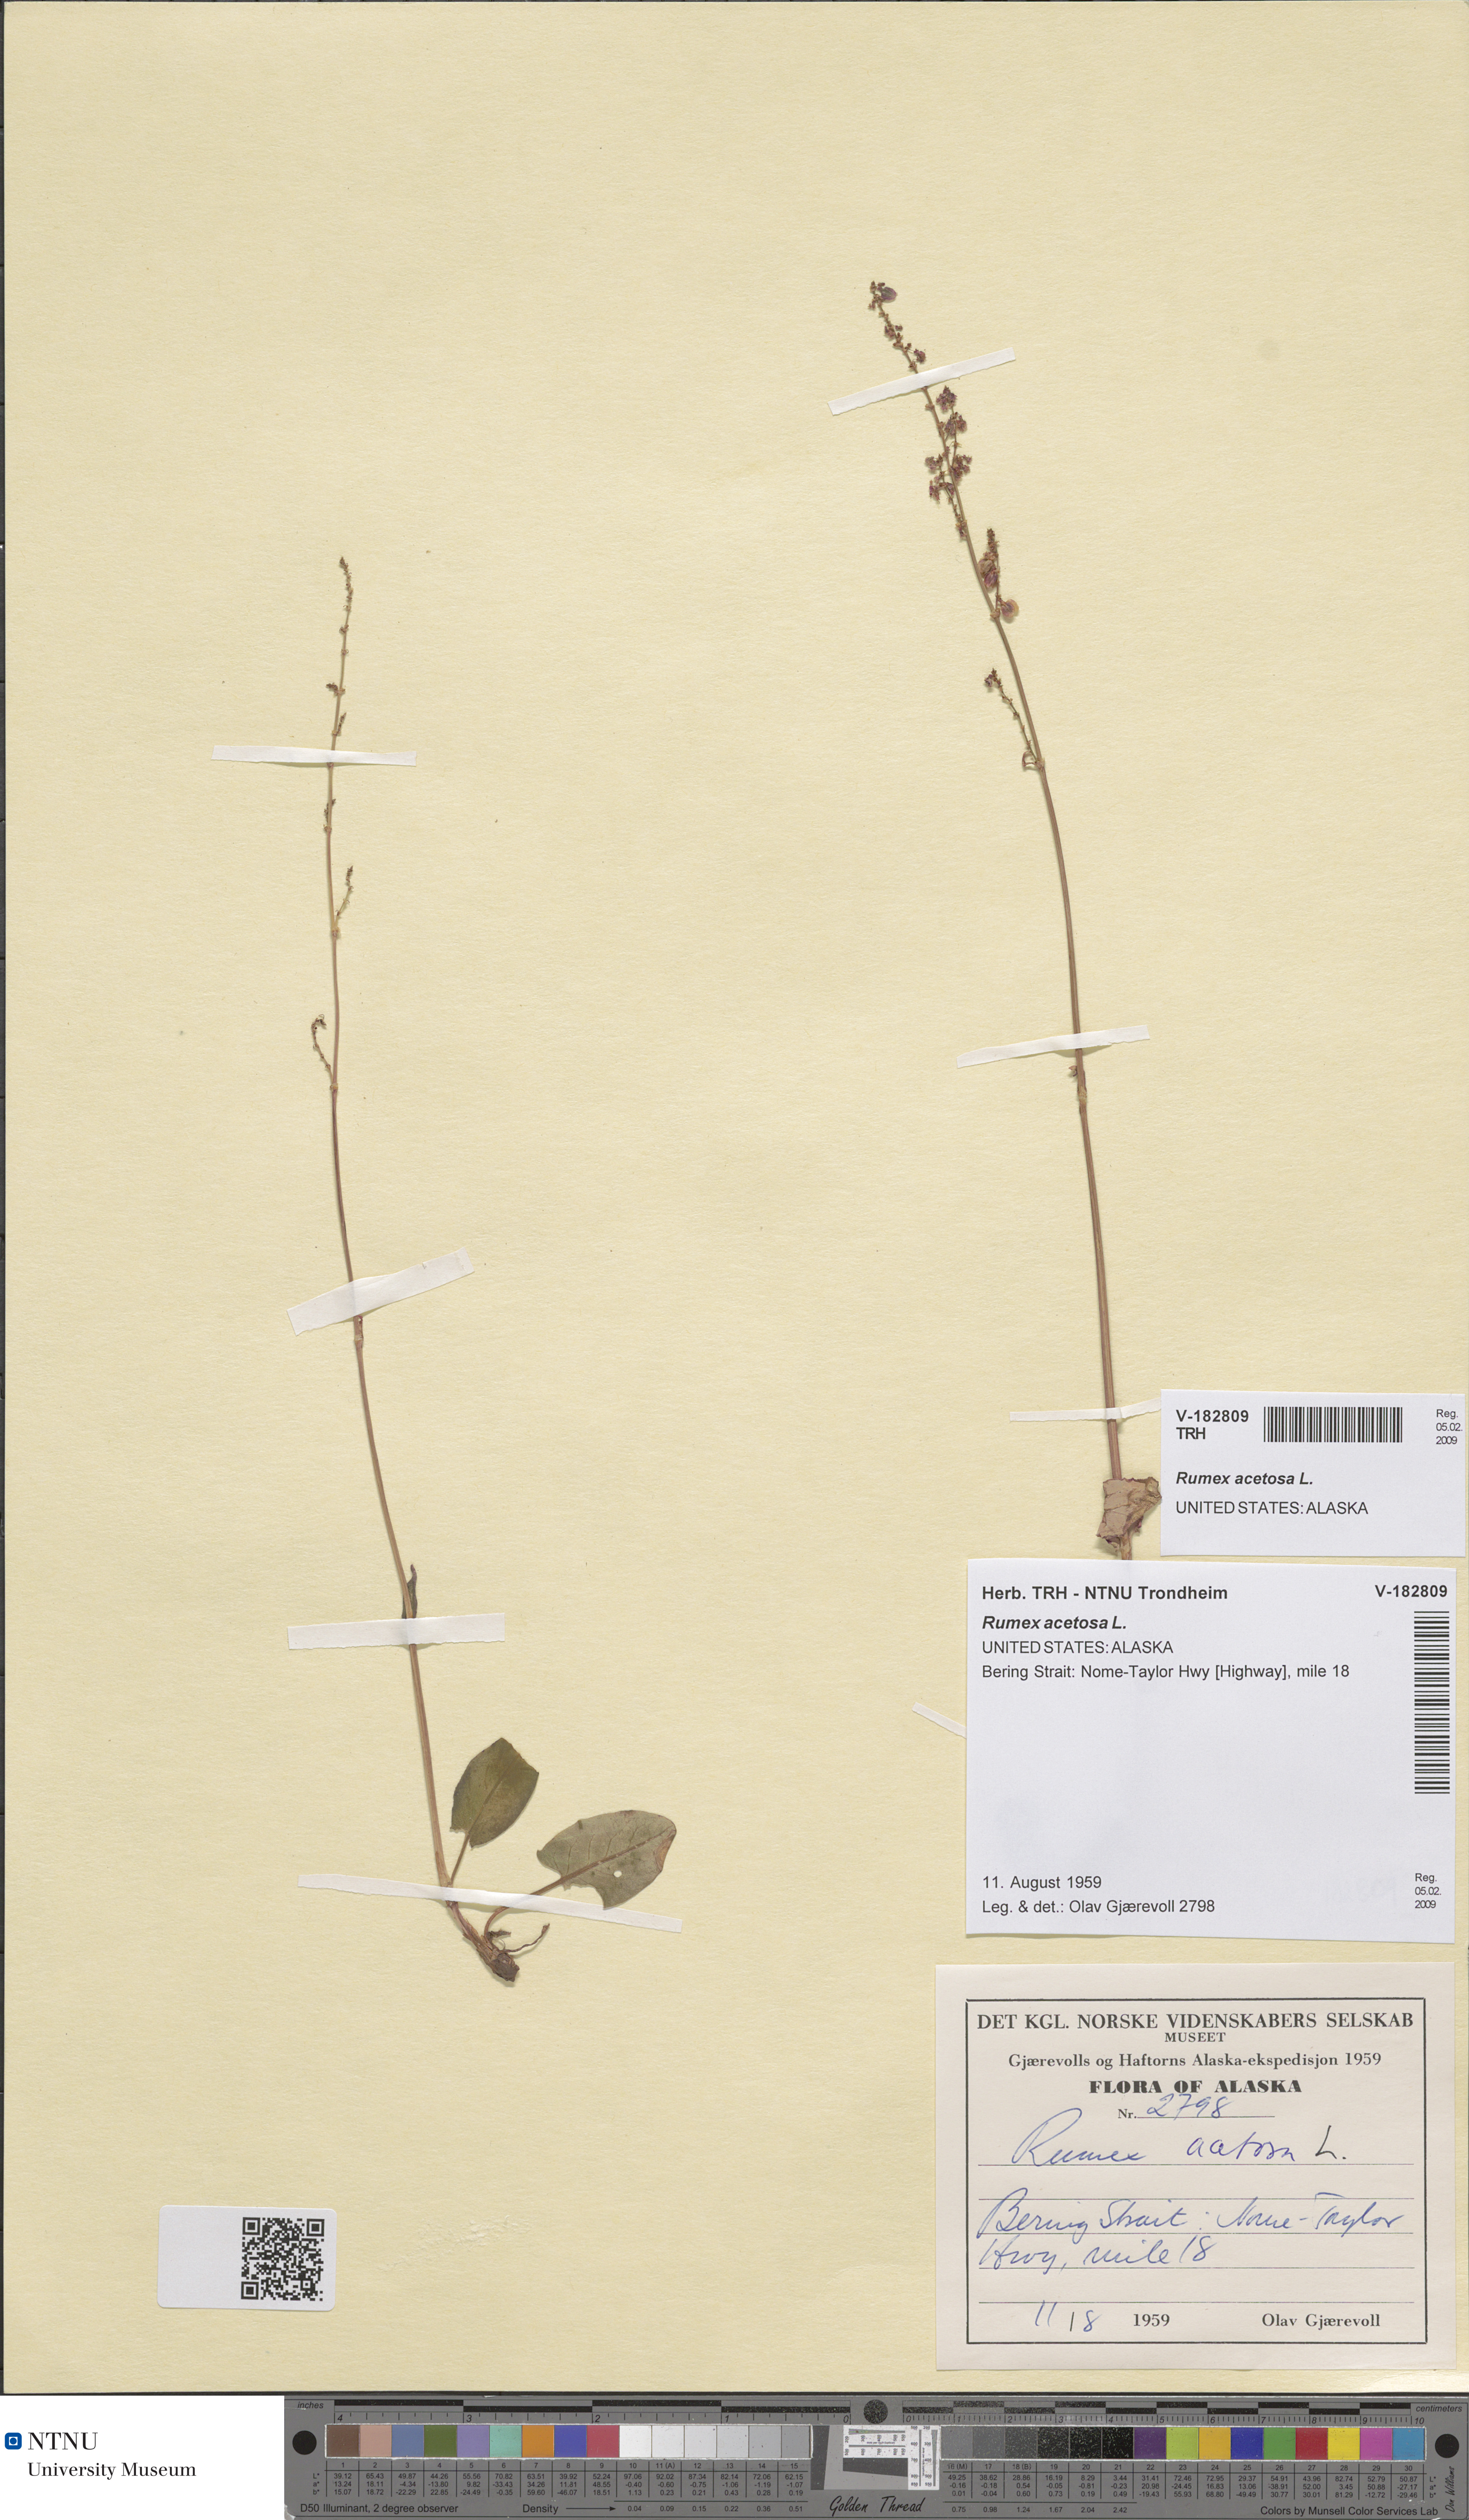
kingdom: Plantae
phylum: Tracheophyta
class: Magnoliopsida
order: Caryophyllales
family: Polygonaceae
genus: Rumex
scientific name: Rumex acetosa
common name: Garden sorrel
